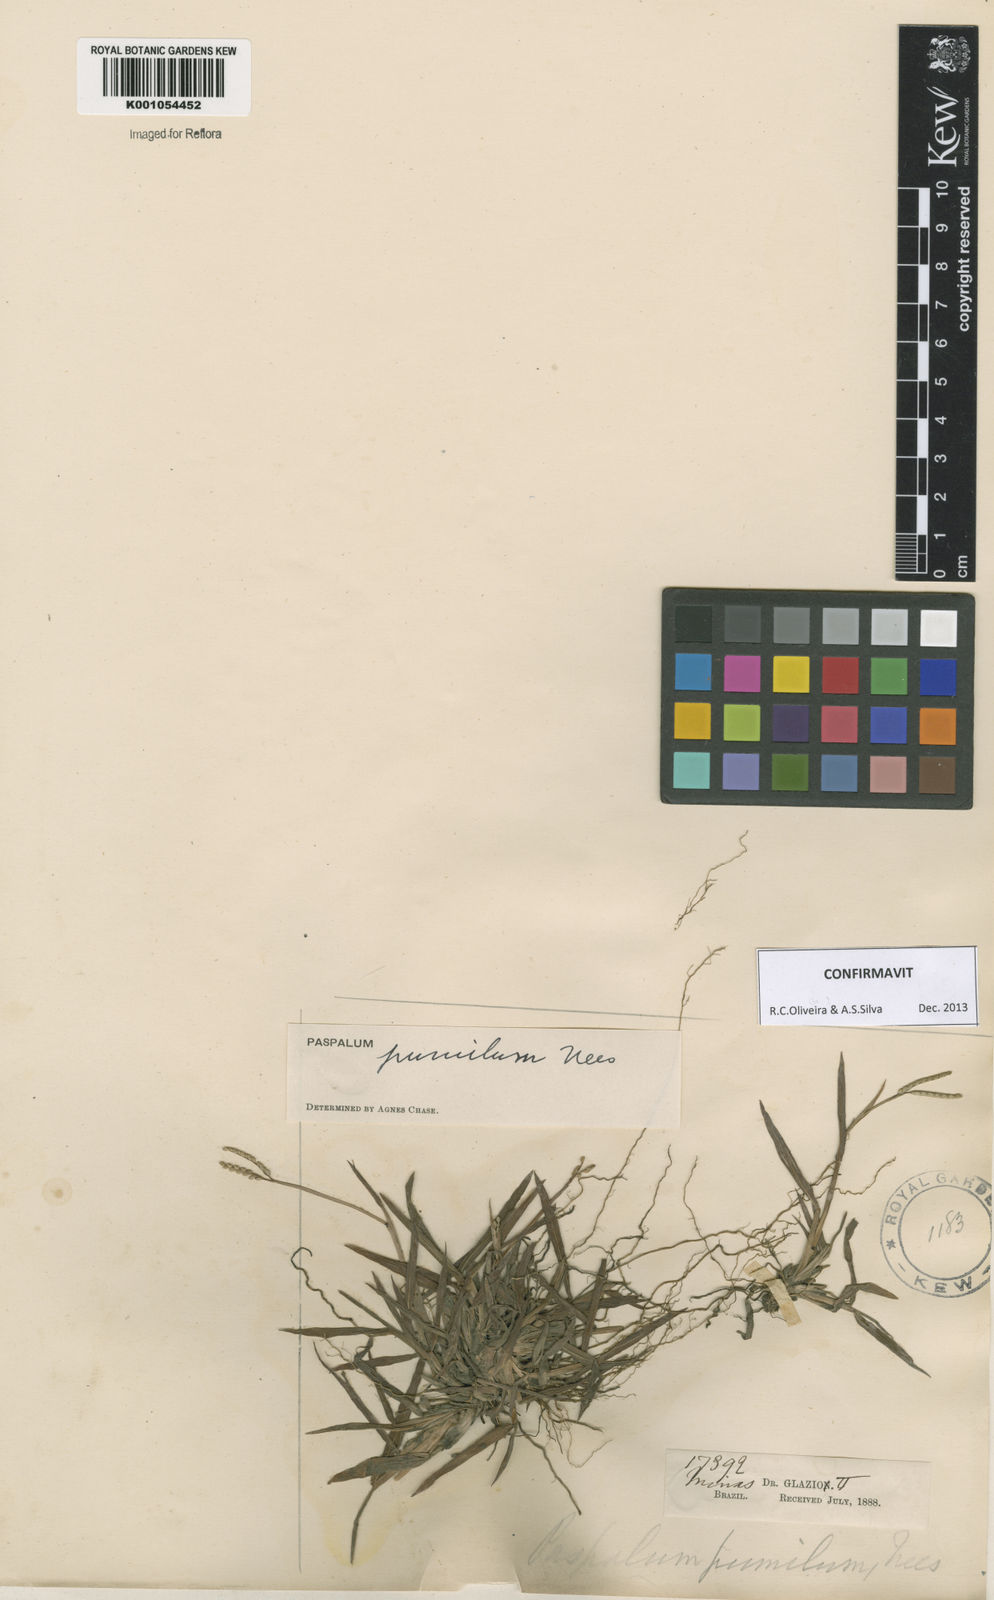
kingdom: Plantae
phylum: Tracheophyta
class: Liliopsida
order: Poales
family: Poaceae
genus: Paspalum
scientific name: Paspalum pumilum
